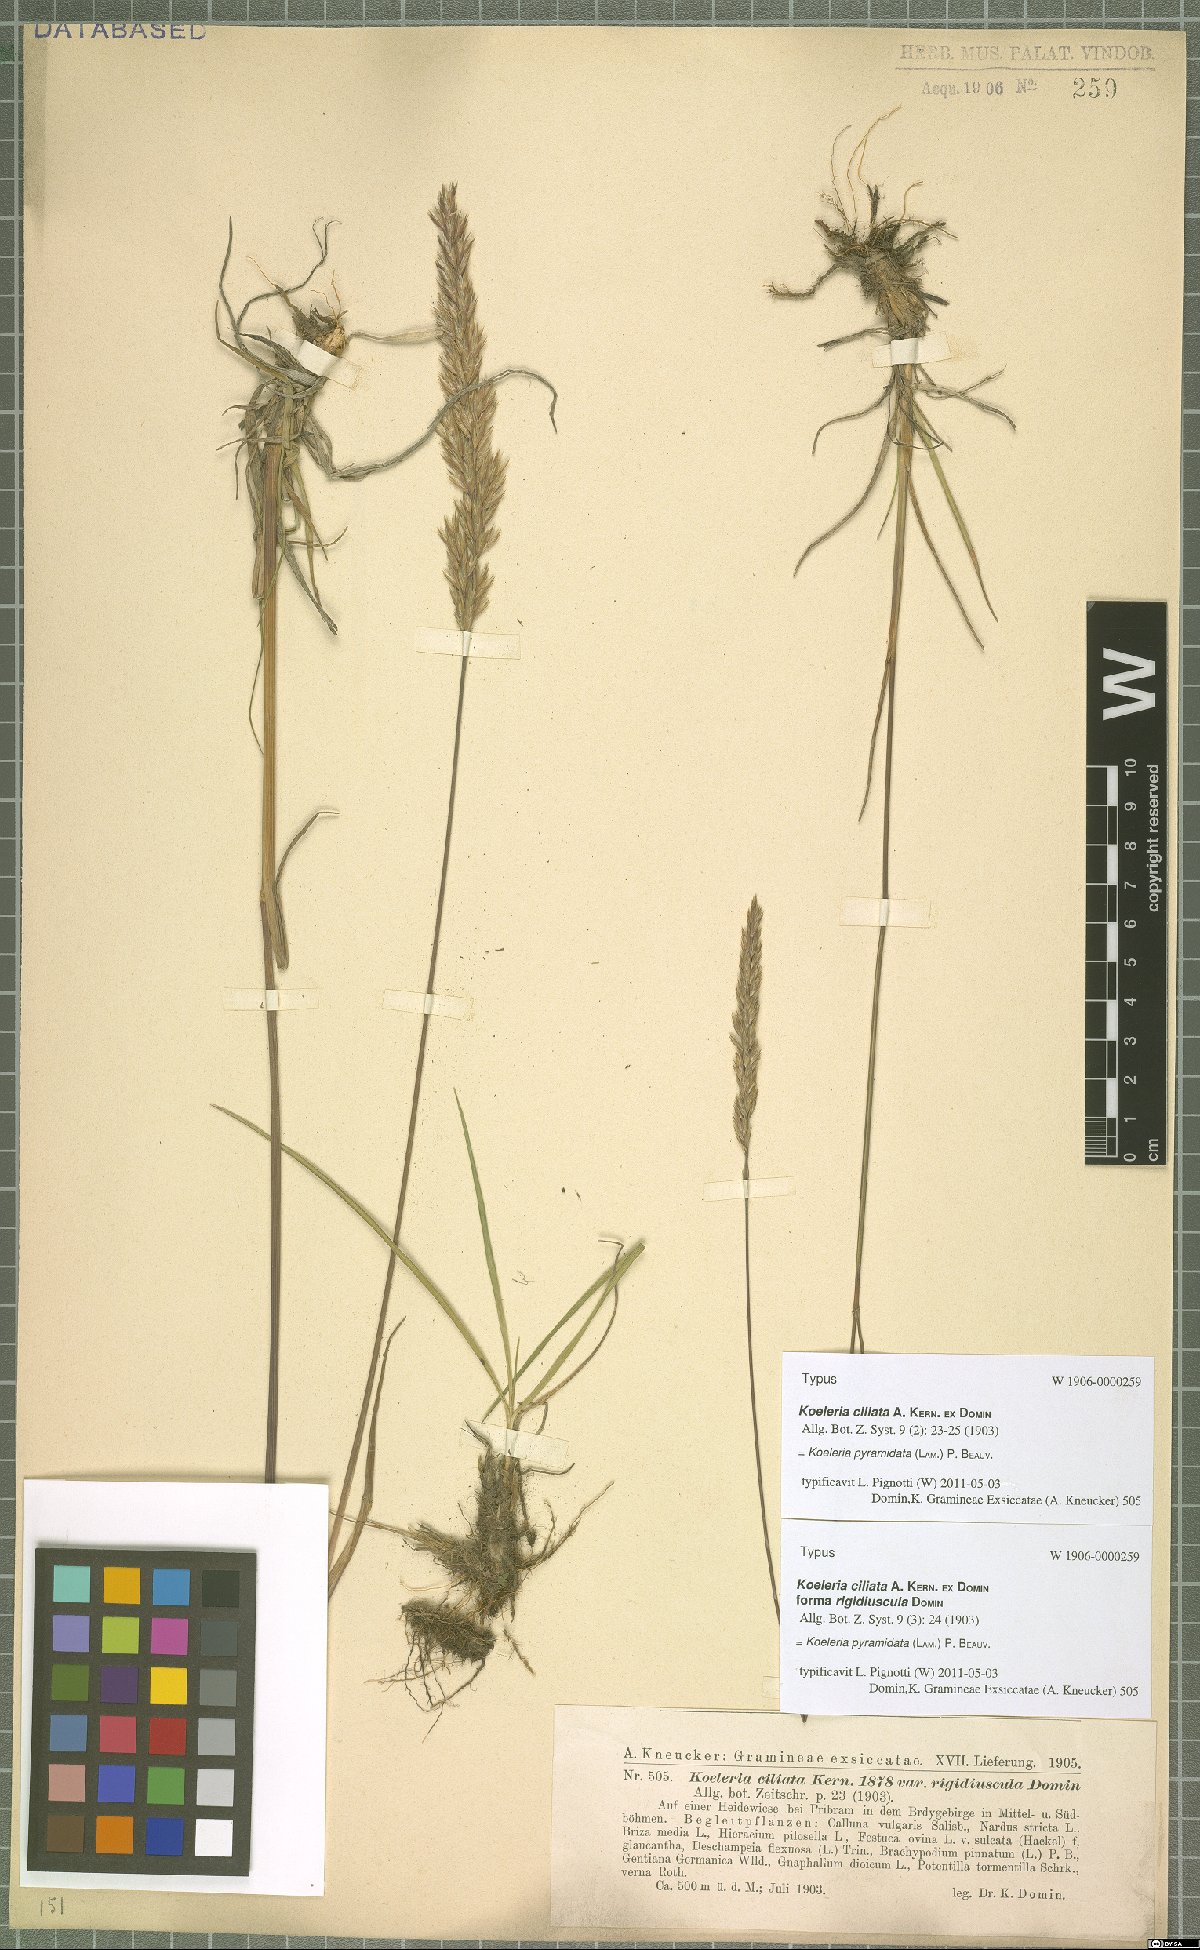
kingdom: Plantae
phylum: Tracheophyta
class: Liliopsida
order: Poales
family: Poaceae
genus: Koeleria
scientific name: Koeleria pyramidata
